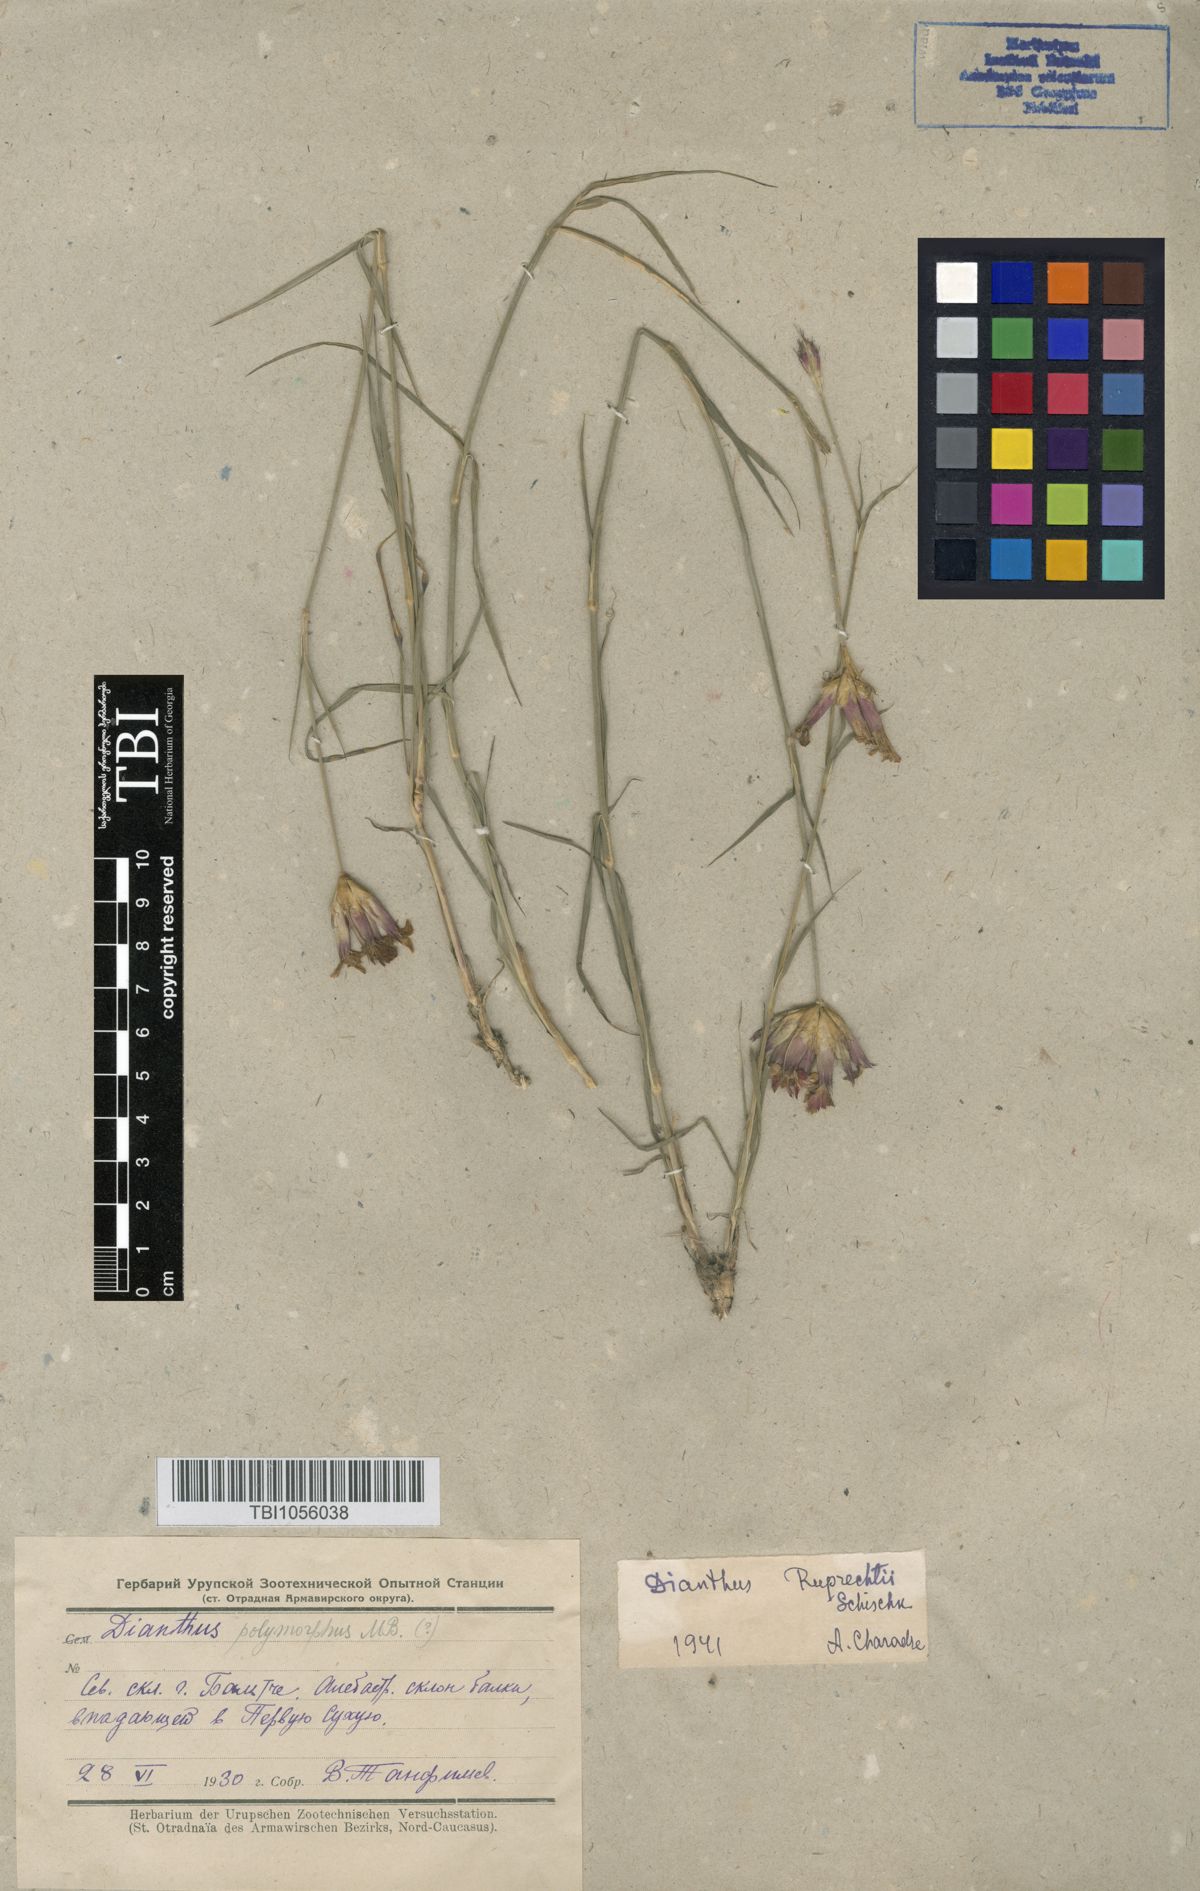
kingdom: Plantae
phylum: Tracheophyta
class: Magnoliopsida
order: Caryophyllales
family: Caryophyllaceae
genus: Dianthus
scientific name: Dianthus ruprechtii
